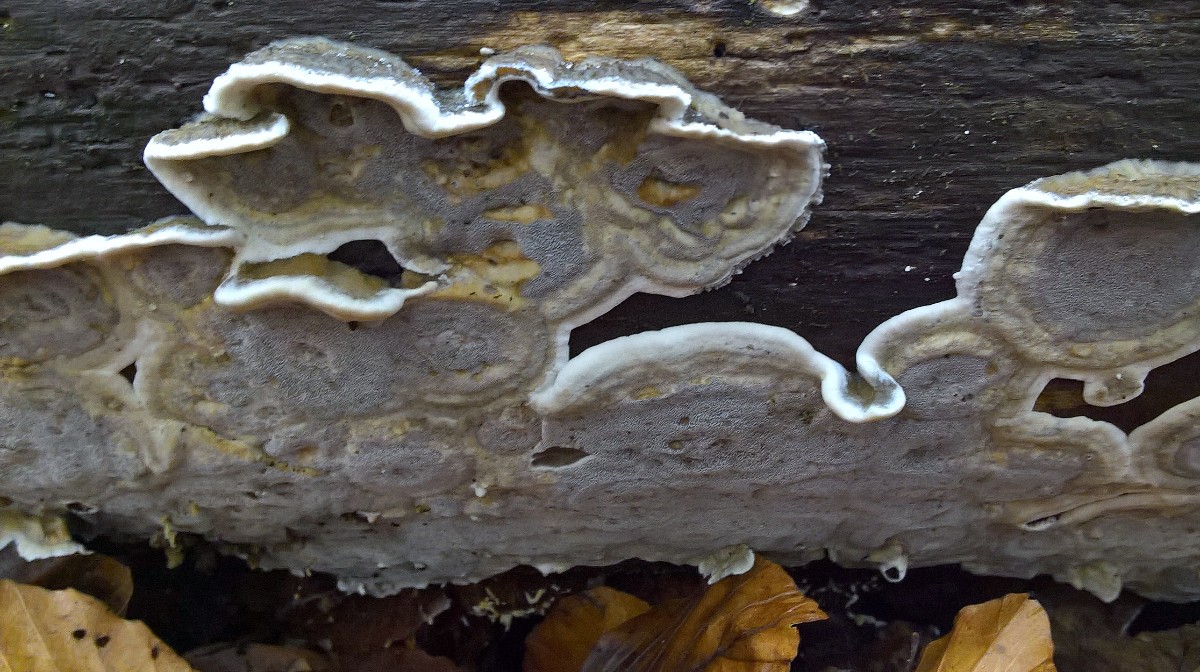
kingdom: Fungi
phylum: Basidiomycota
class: Agaricomycetes
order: Polyporales
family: Phanerochaetaceae
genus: Bjerkandera
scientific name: Bjerkandera adusta
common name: sveden sodporesvamp
